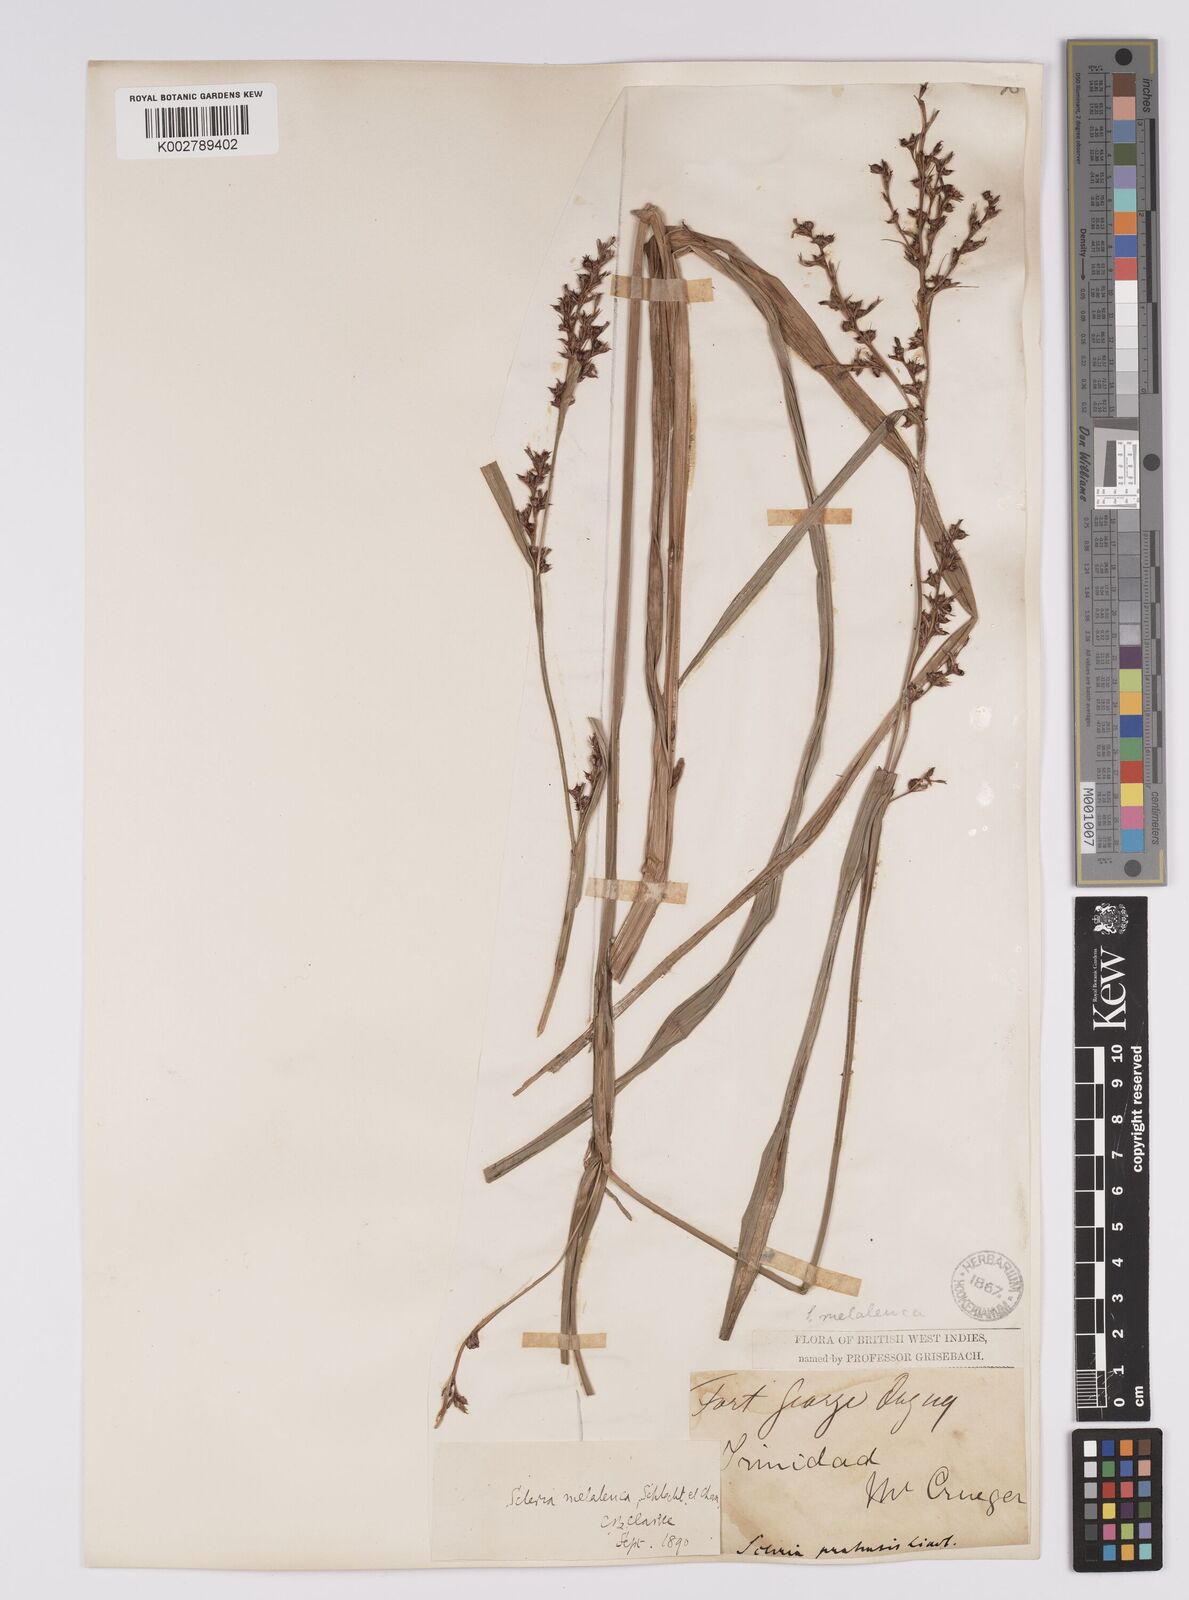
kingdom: Plantae
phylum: Tracheophyta
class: Liliopsida
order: Poales
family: Cyperaceae
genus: Scleria
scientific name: Scleria gaertneri
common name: Cortadera blanca
